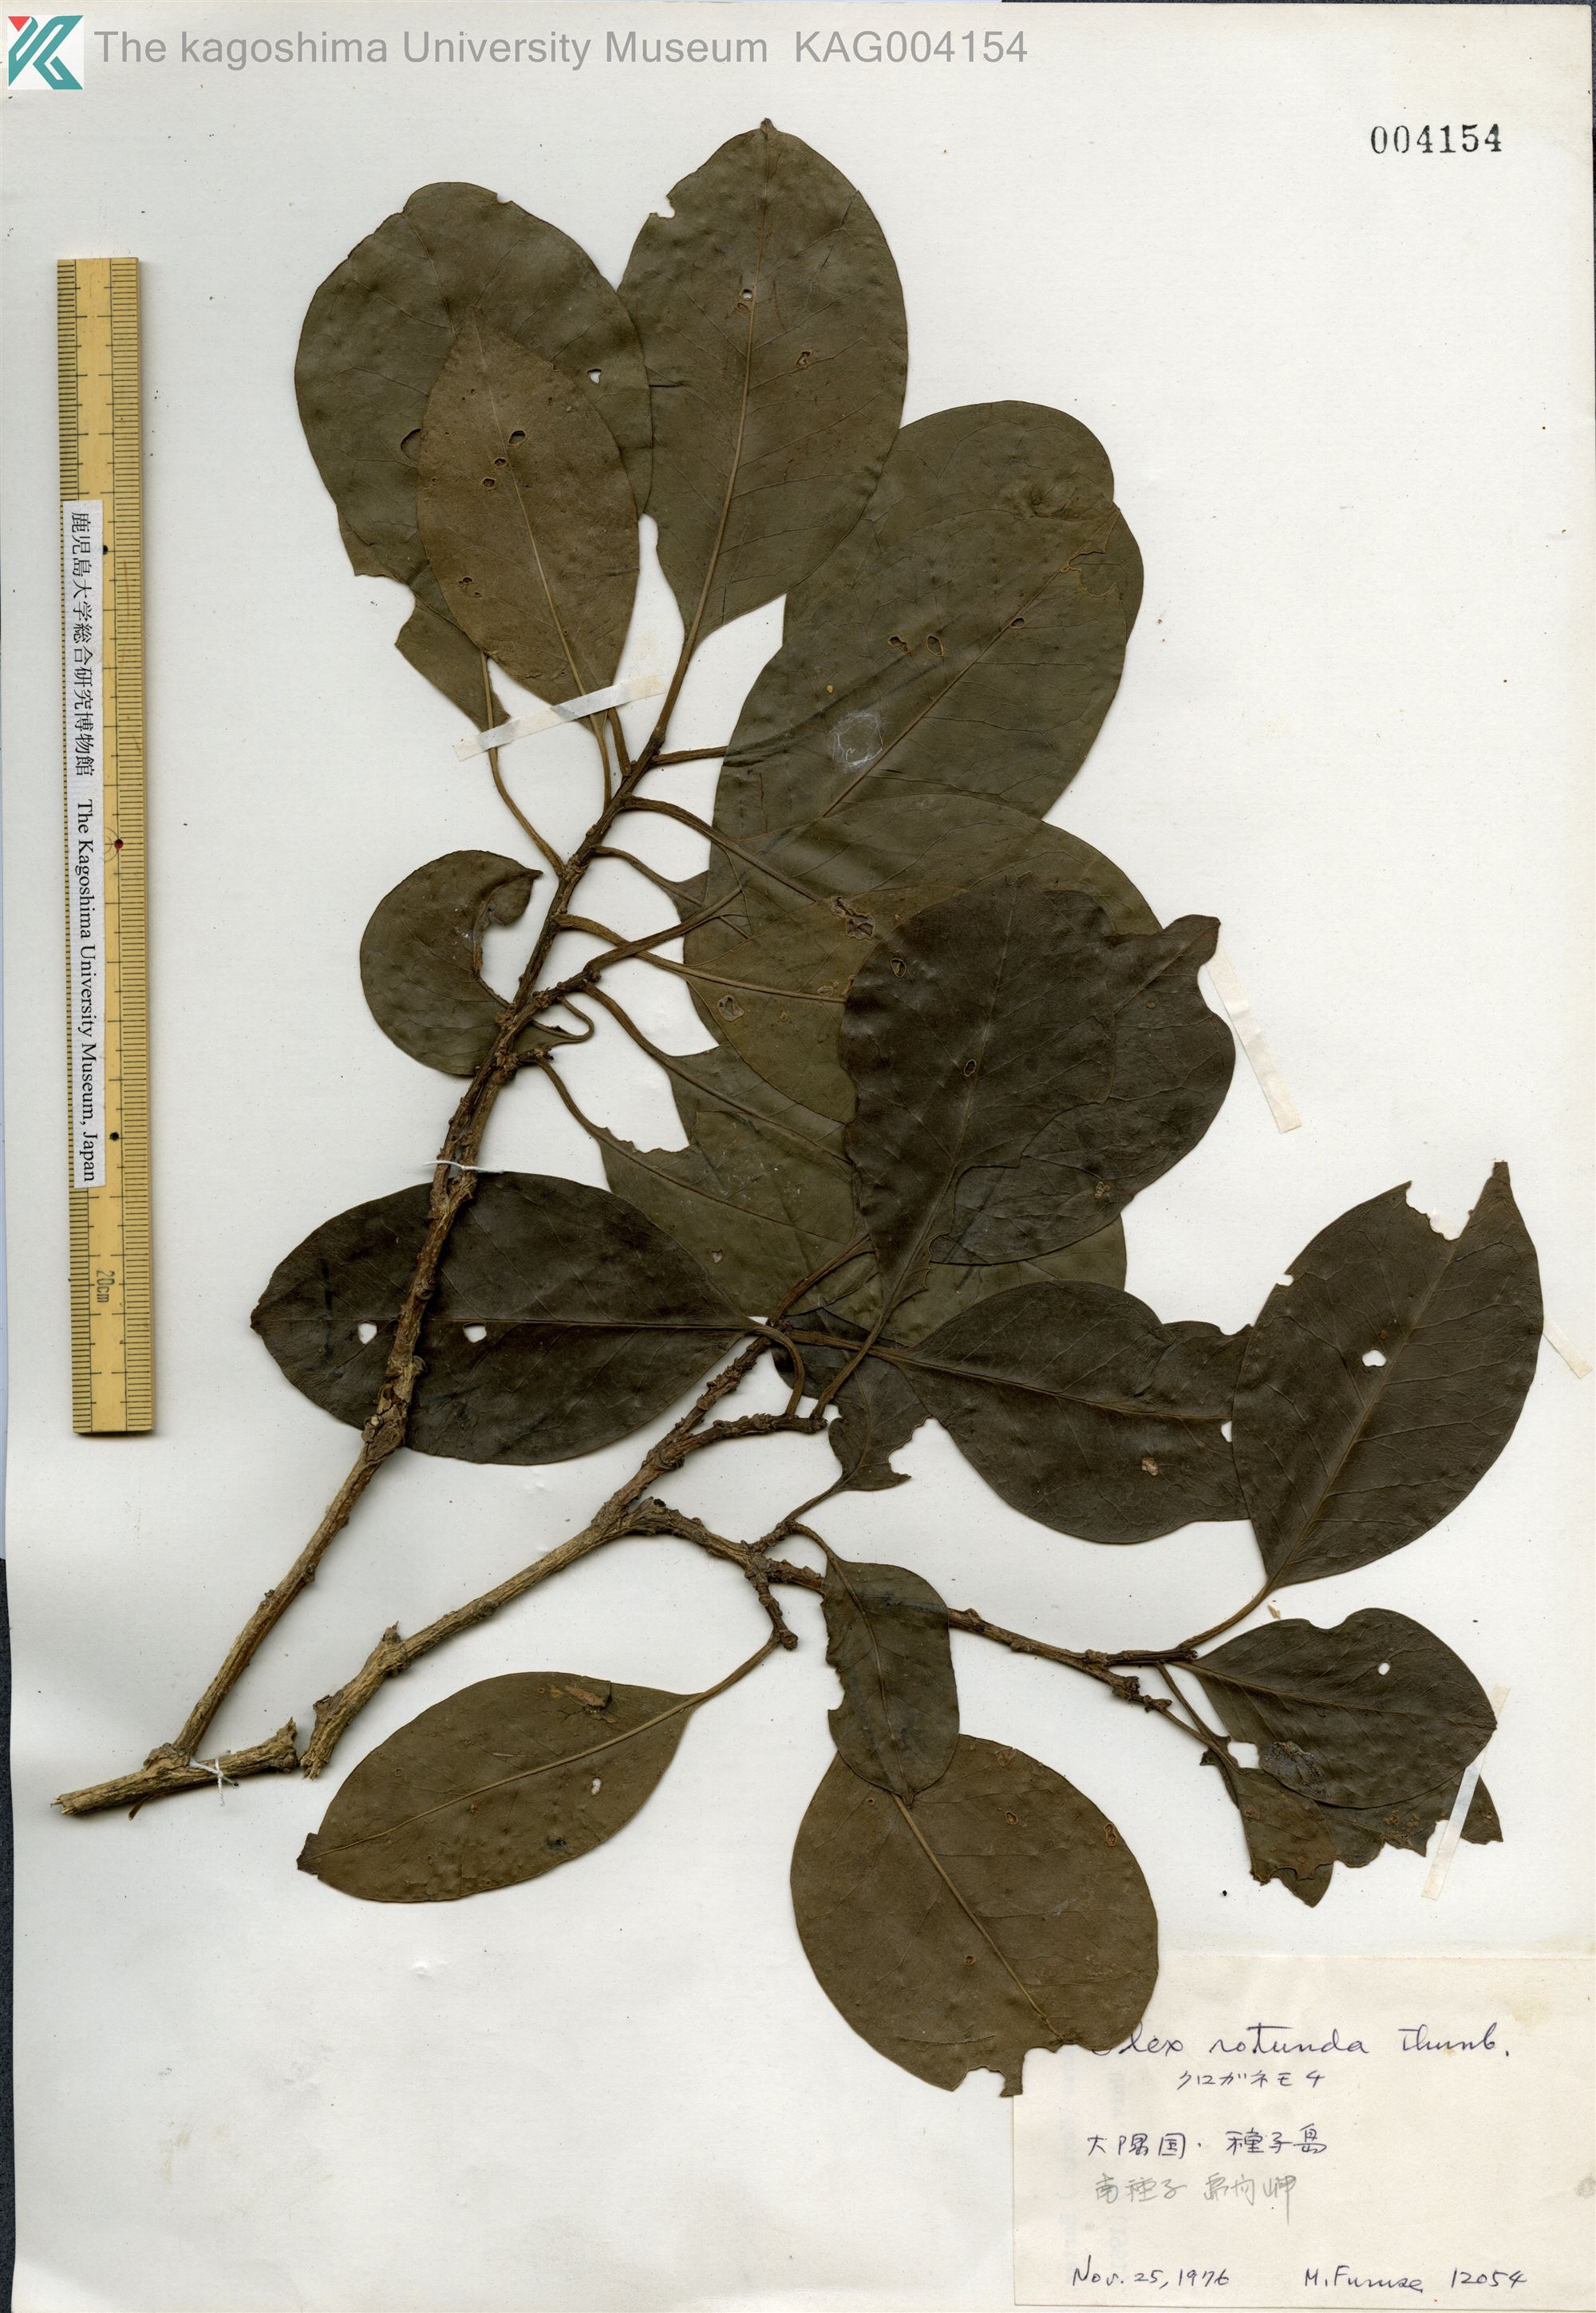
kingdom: Plantae
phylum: Tracheophyta
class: Magnoliopsida
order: Aquifoliales
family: Aquifoliaceae
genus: Ilex
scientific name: Ilex rotunda
